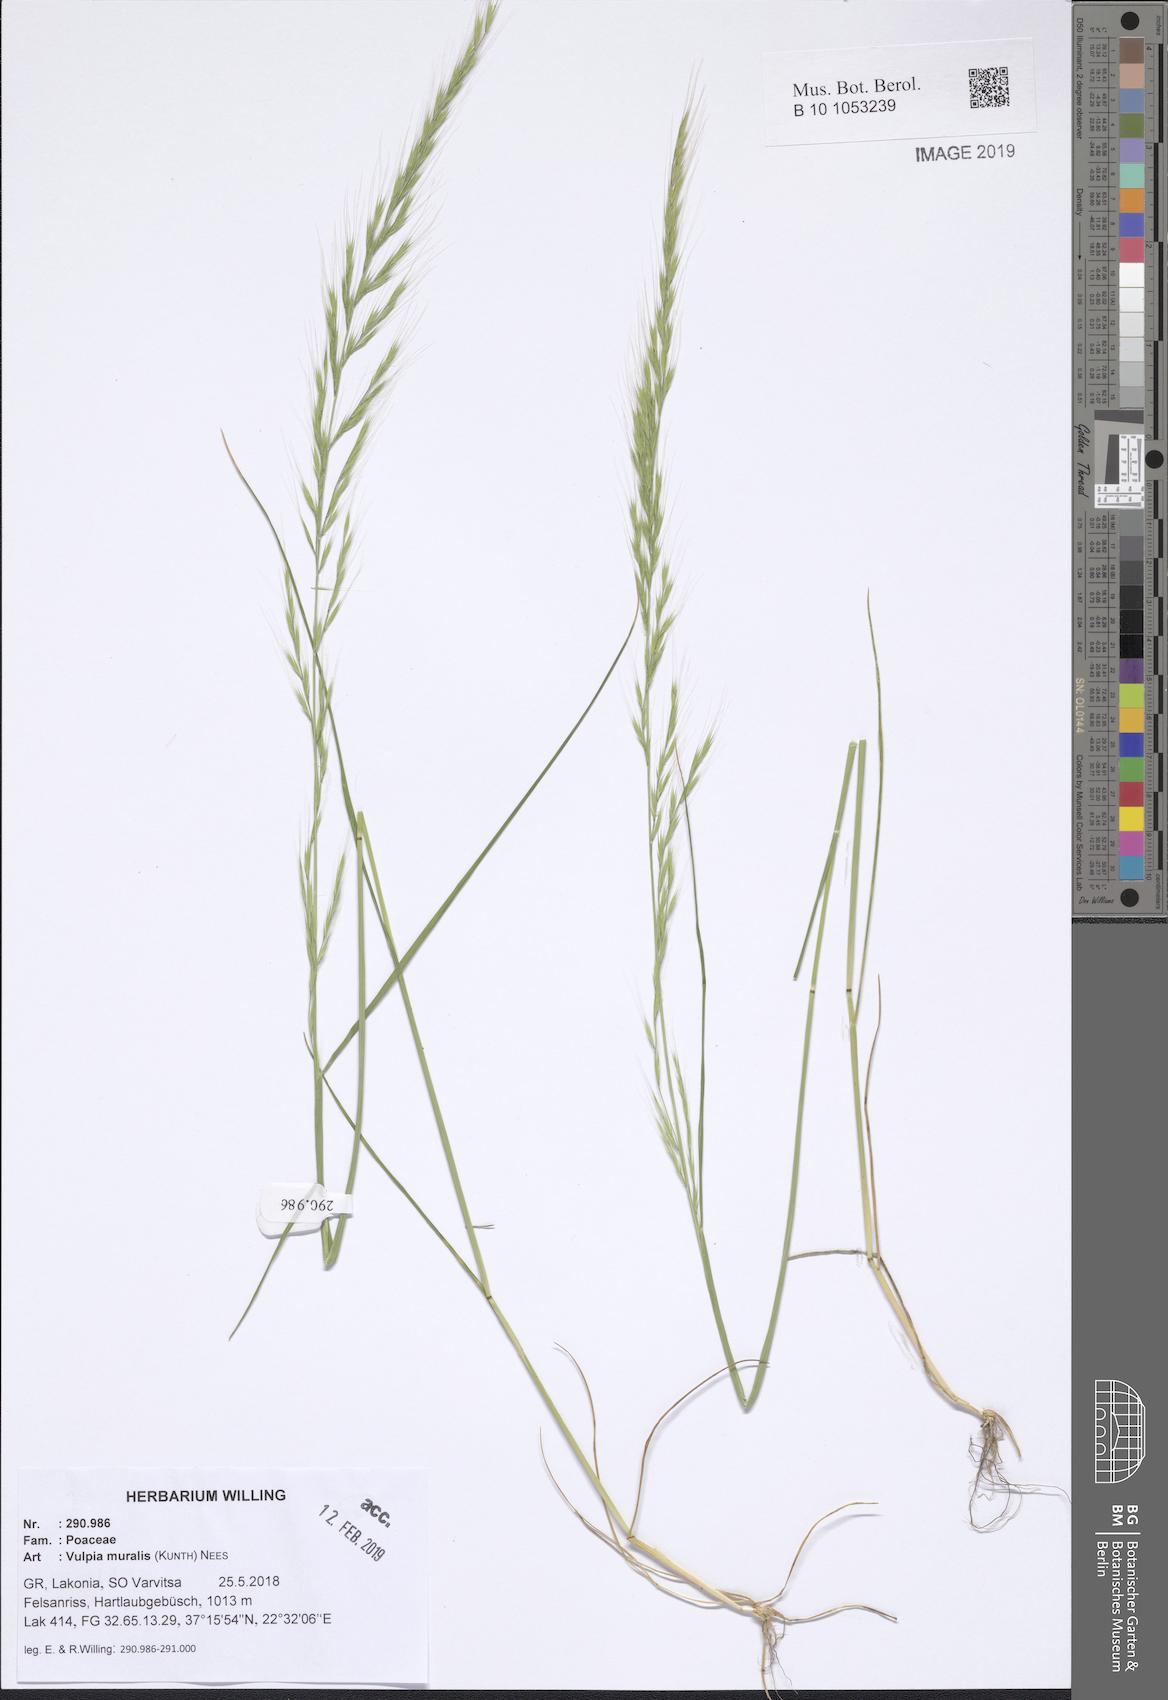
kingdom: Plantae
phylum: Tracheophyta
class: Liliopsida
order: Poales
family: Poaceae
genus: Festuca
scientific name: Festuca muralis
